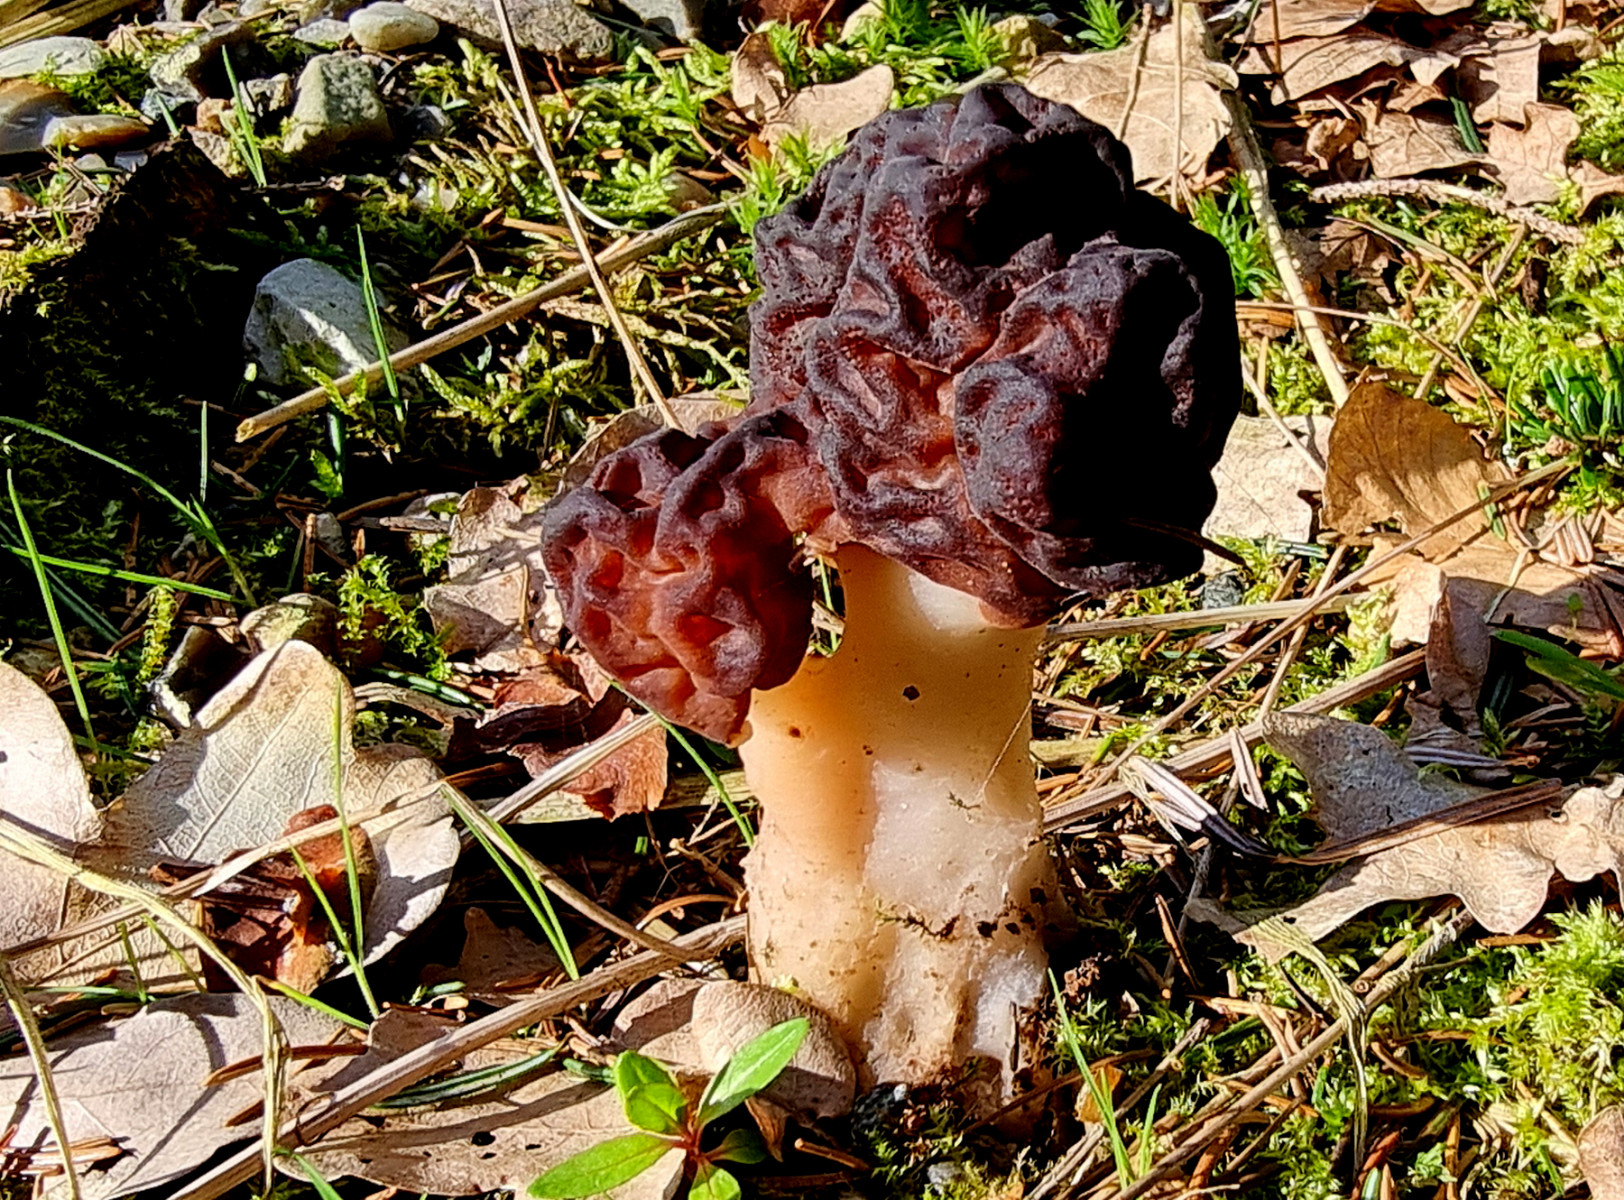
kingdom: Fungi
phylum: Ascomycota
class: Pezizomycetes
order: Pezizales
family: Discinaceae
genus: Gyromitra
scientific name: Gyromitra esculenta
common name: ægte stenmorkel
